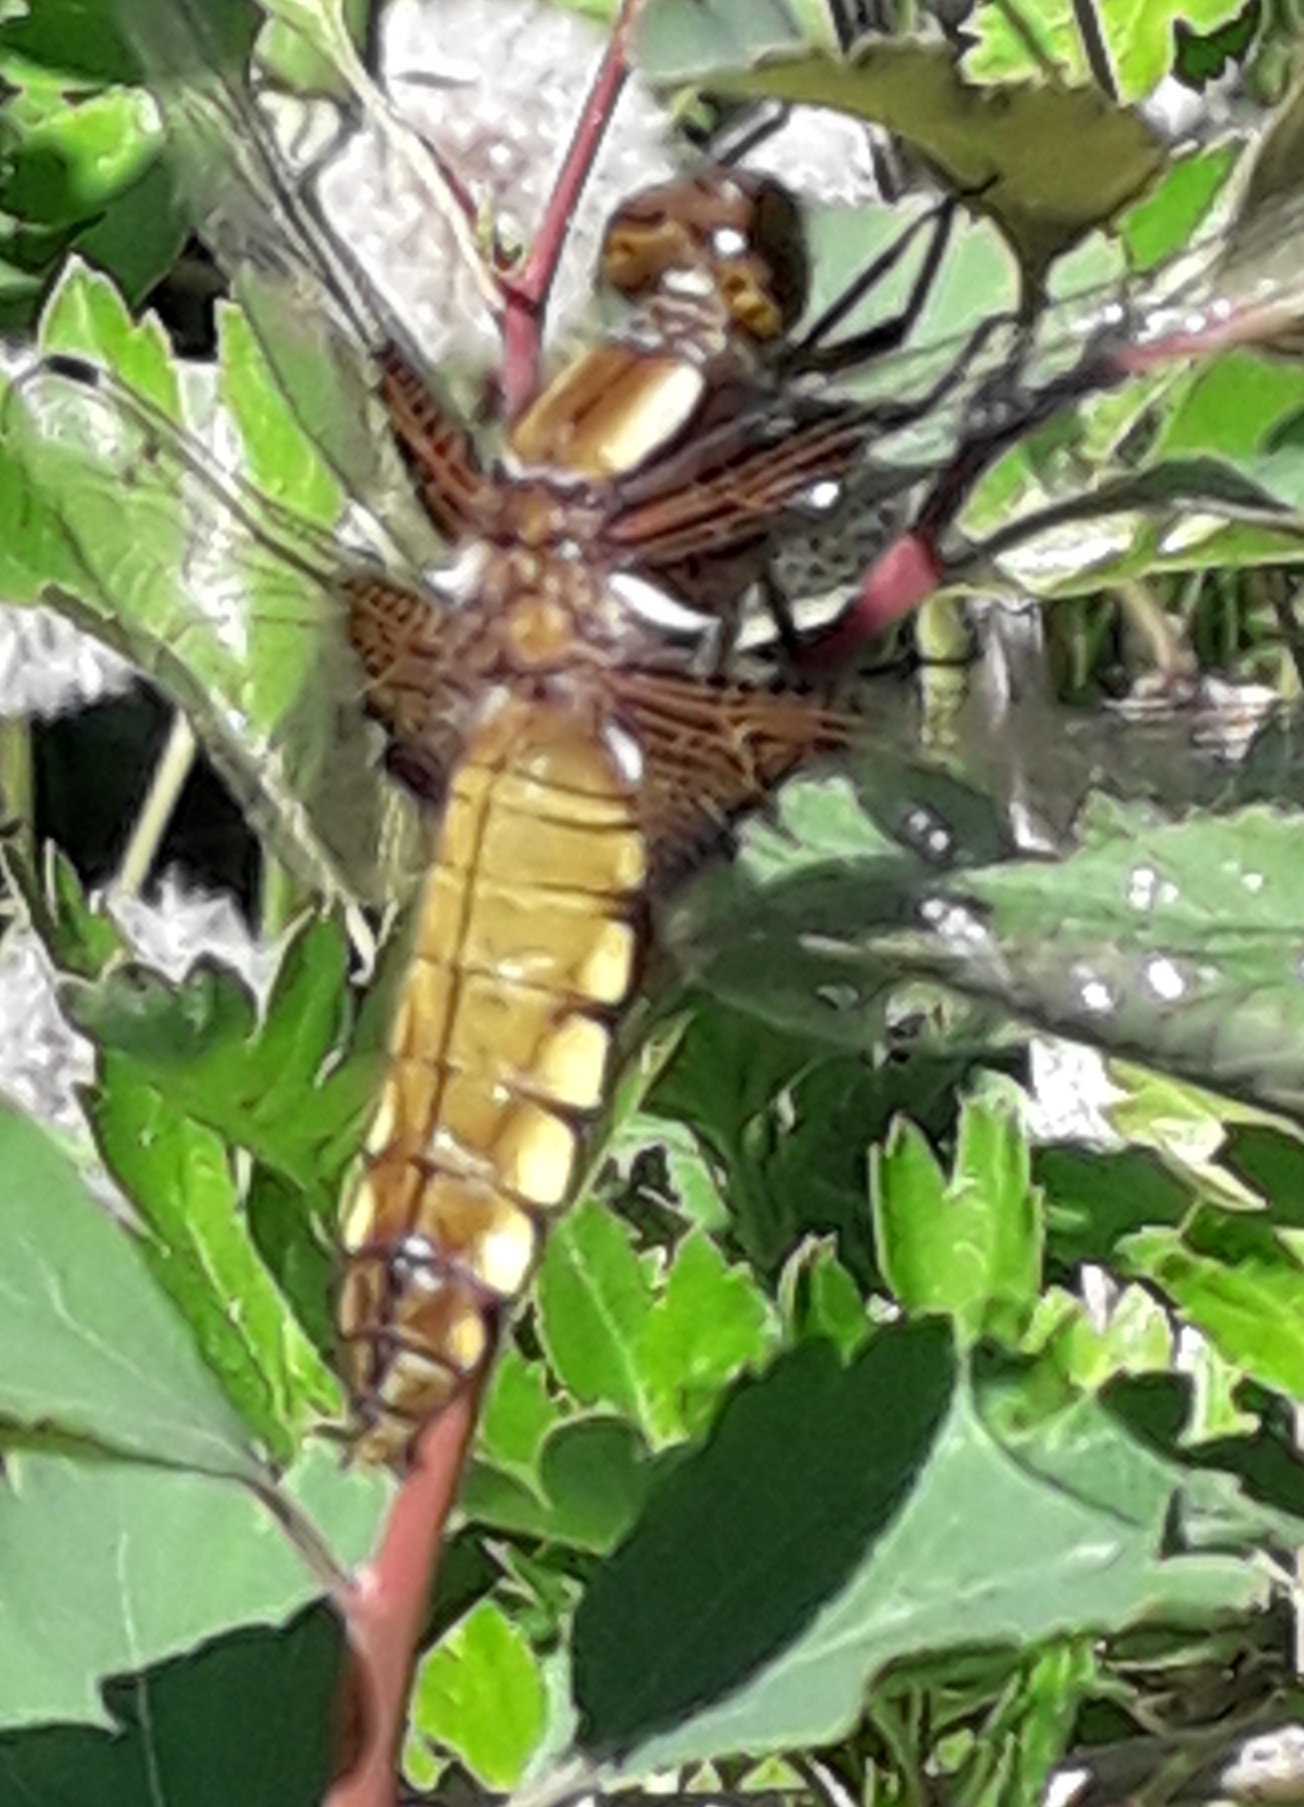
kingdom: Animalia
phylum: Arthropoda
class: Insecta
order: Odonata
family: Libellulidae
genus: Libellula
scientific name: Libellula depressa
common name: Blå libel
